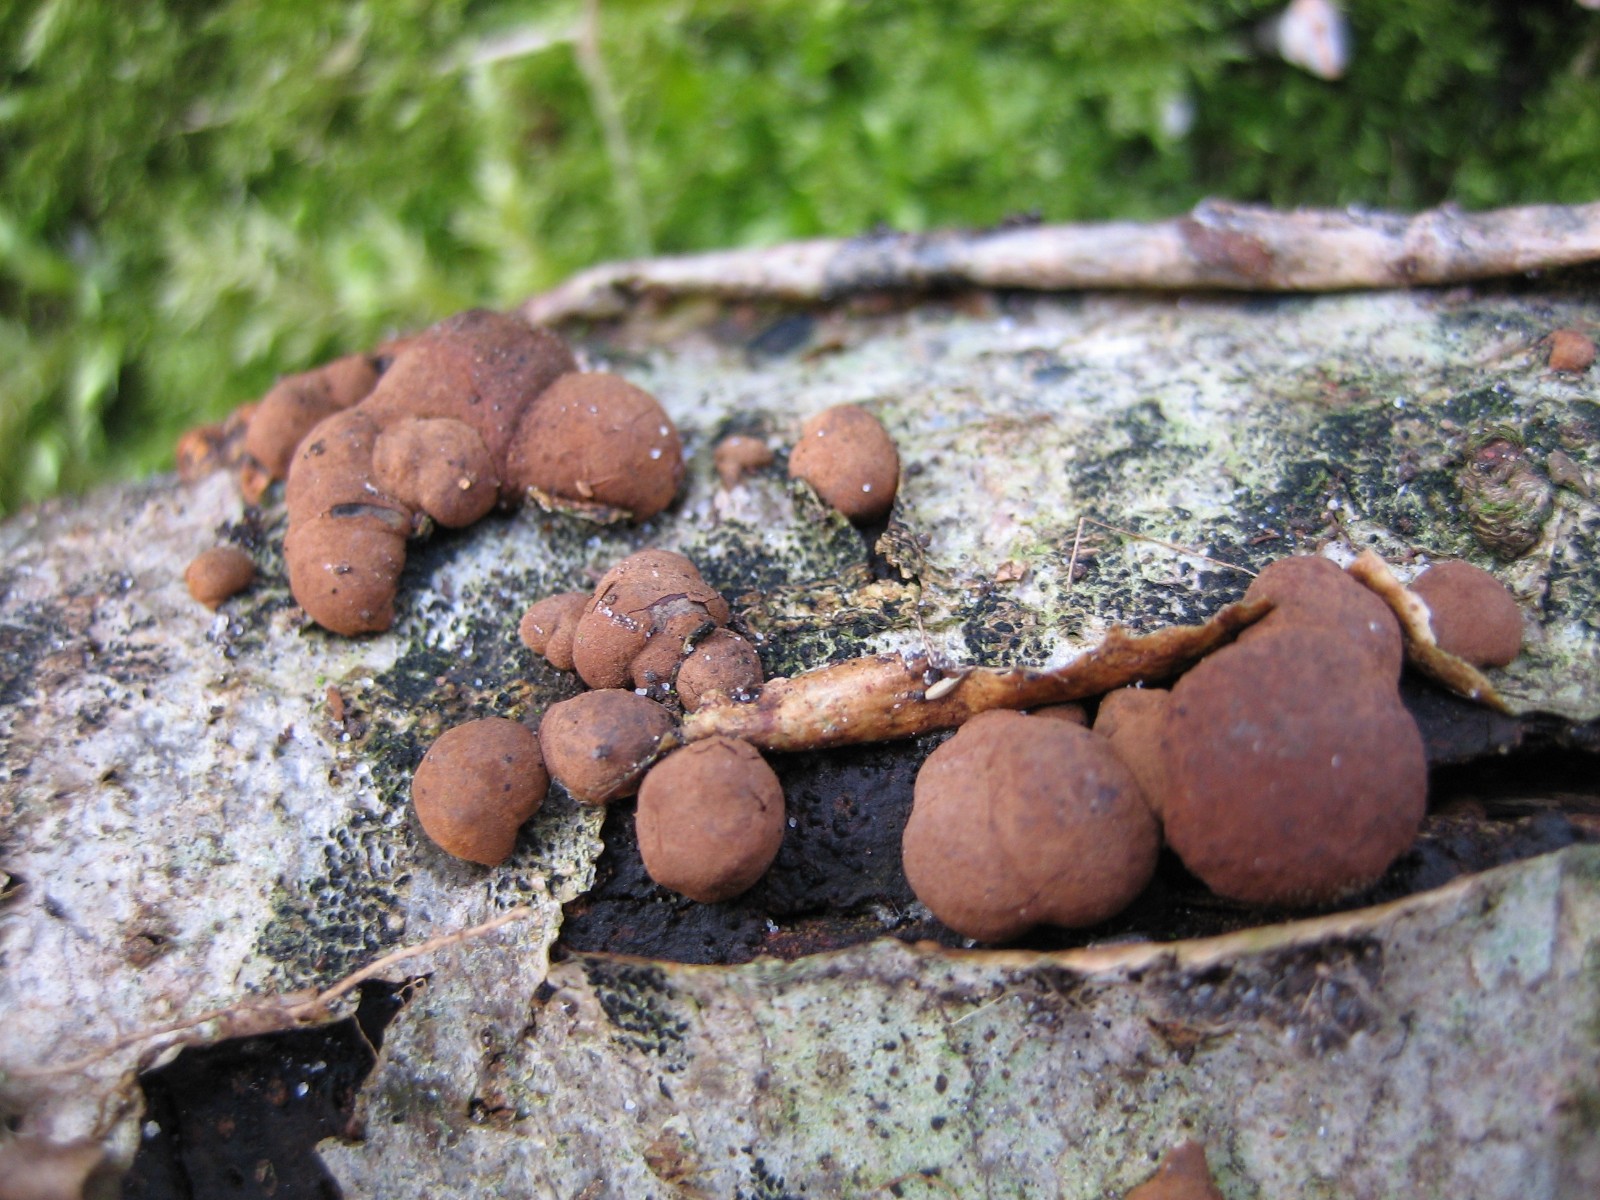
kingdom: Fungi
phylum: Ascomycota
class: Sordariomycetes
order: Xylariales
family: Hypoxylaceae
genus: Hypoxylon
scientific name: Hypoxylon howeanum
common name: halvkugleformet kulbær
